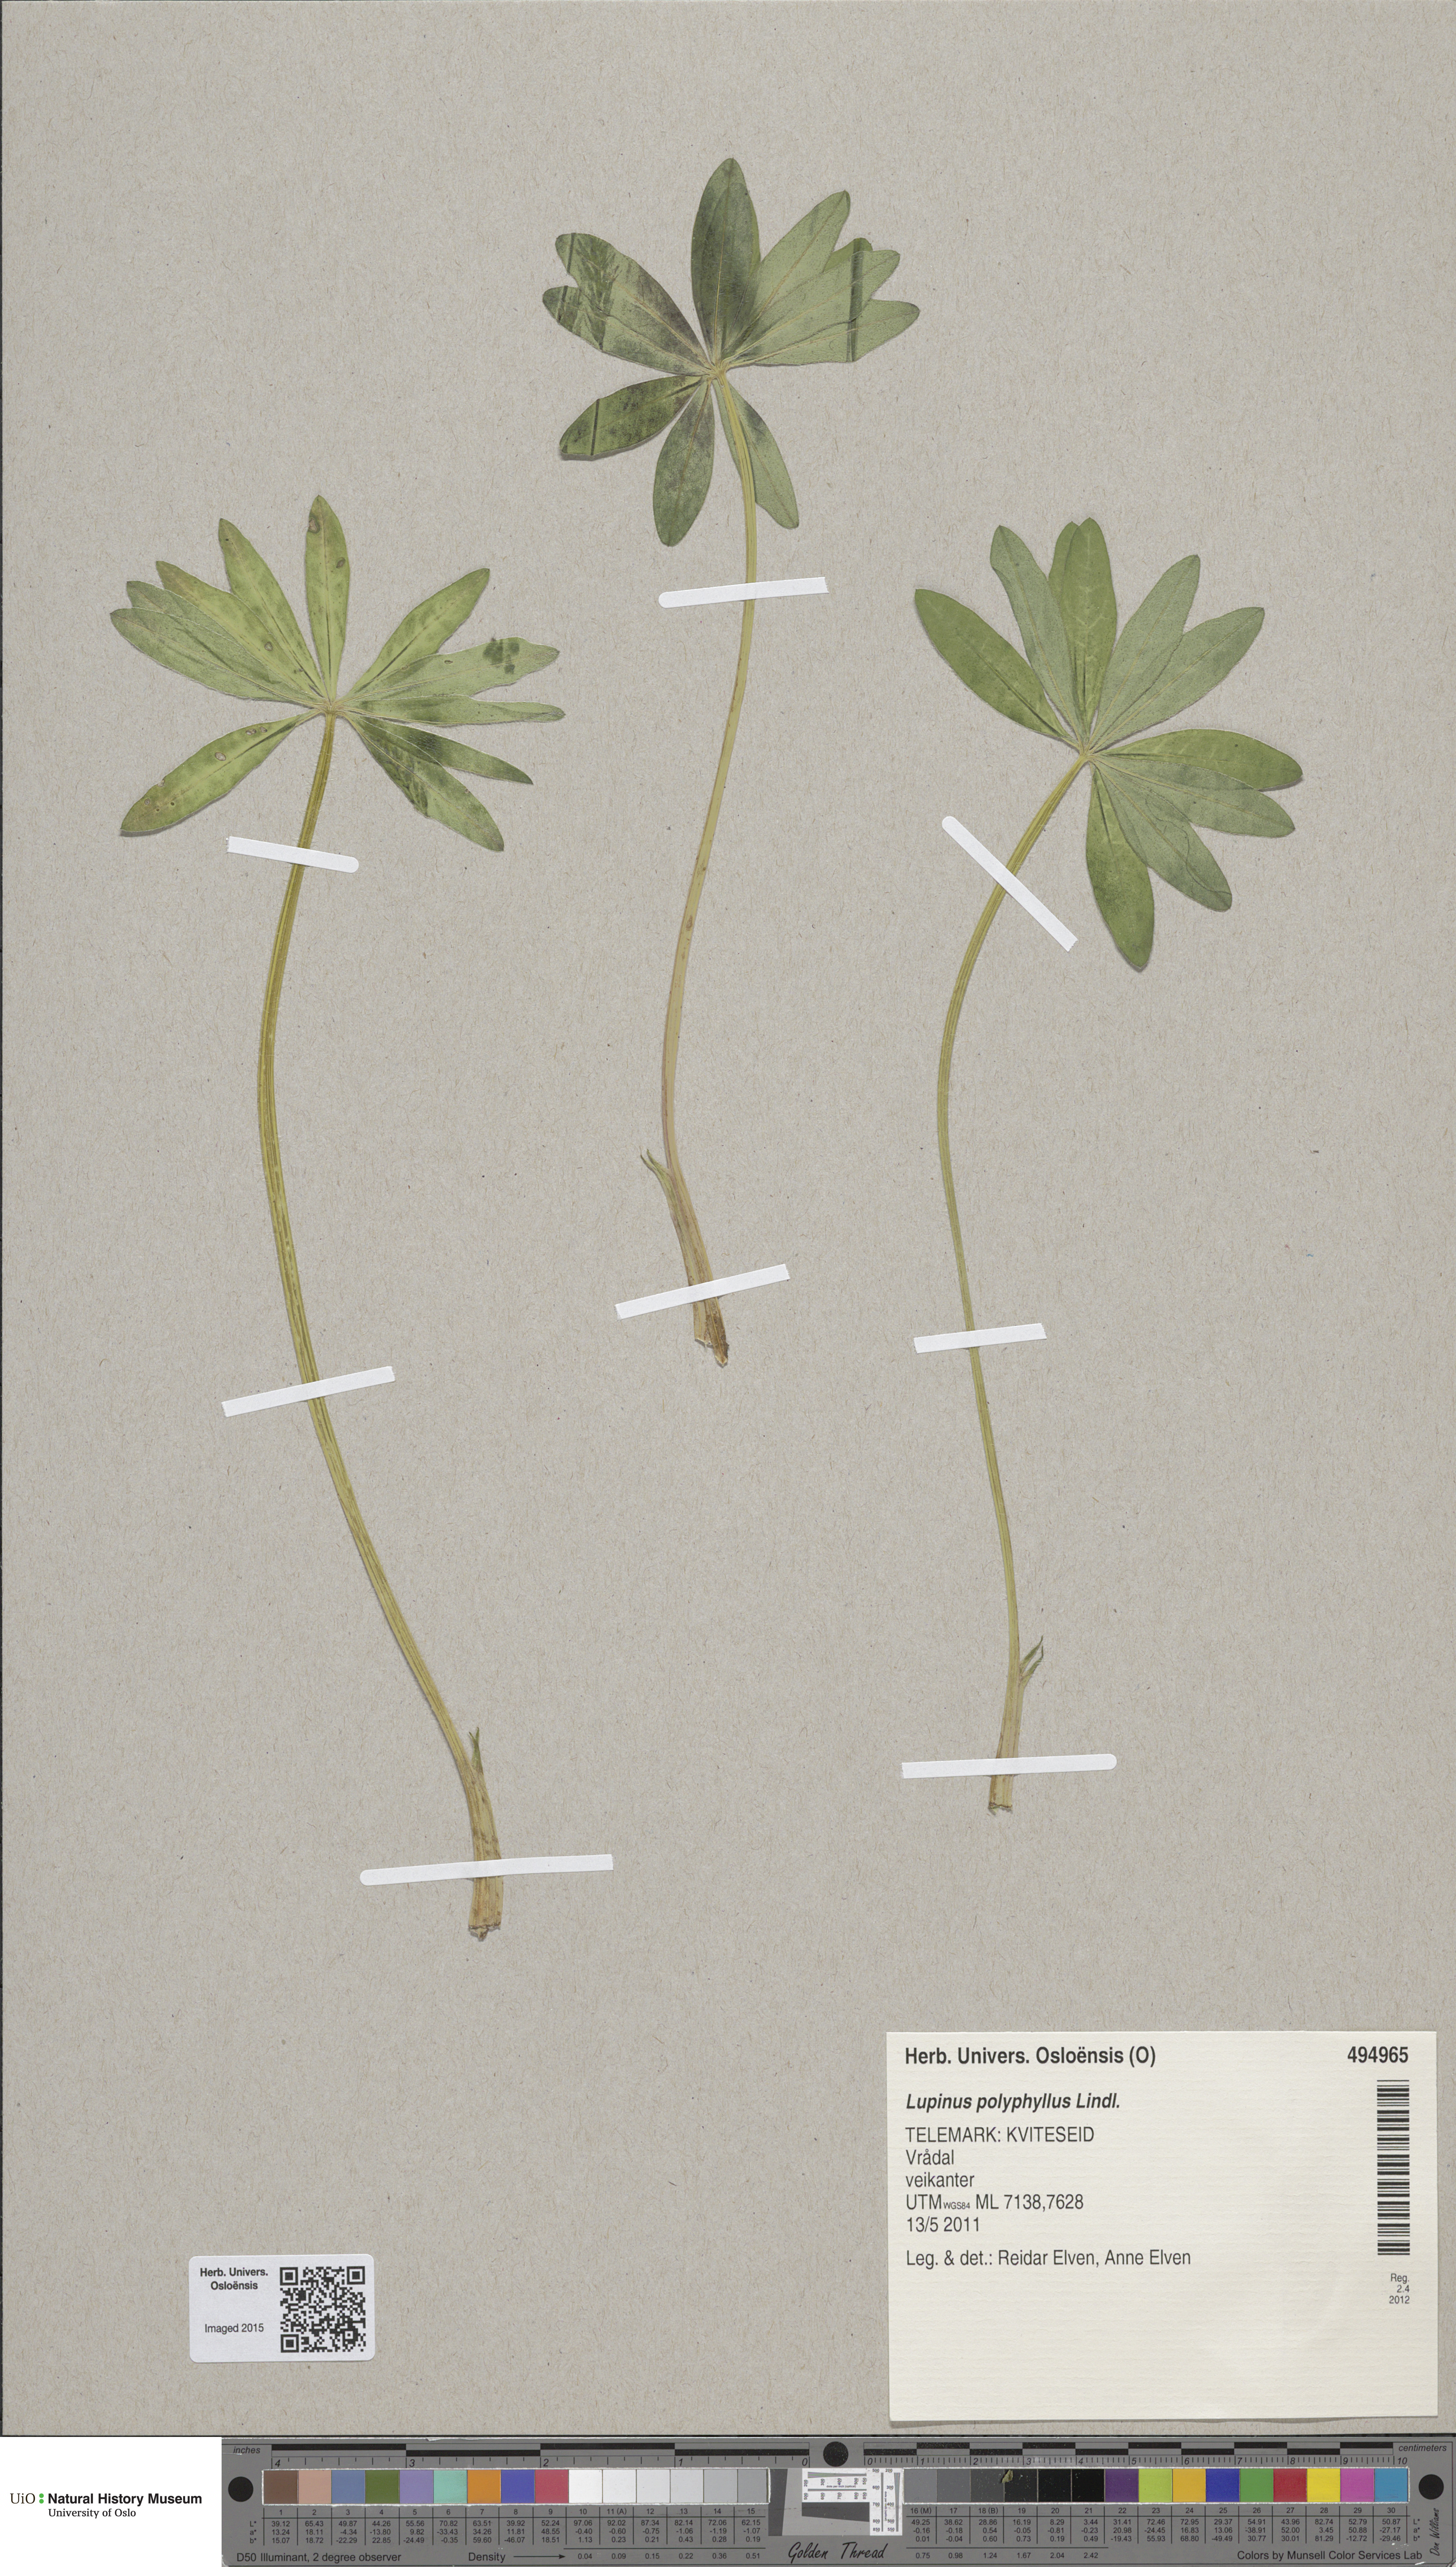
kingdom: Plantae
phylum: Tracheophyta
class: Magnoliopsida
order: Fabales
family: Fabaceae
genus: Lupinus
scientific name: Lupinus polyphyllus
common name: Garden lupin
